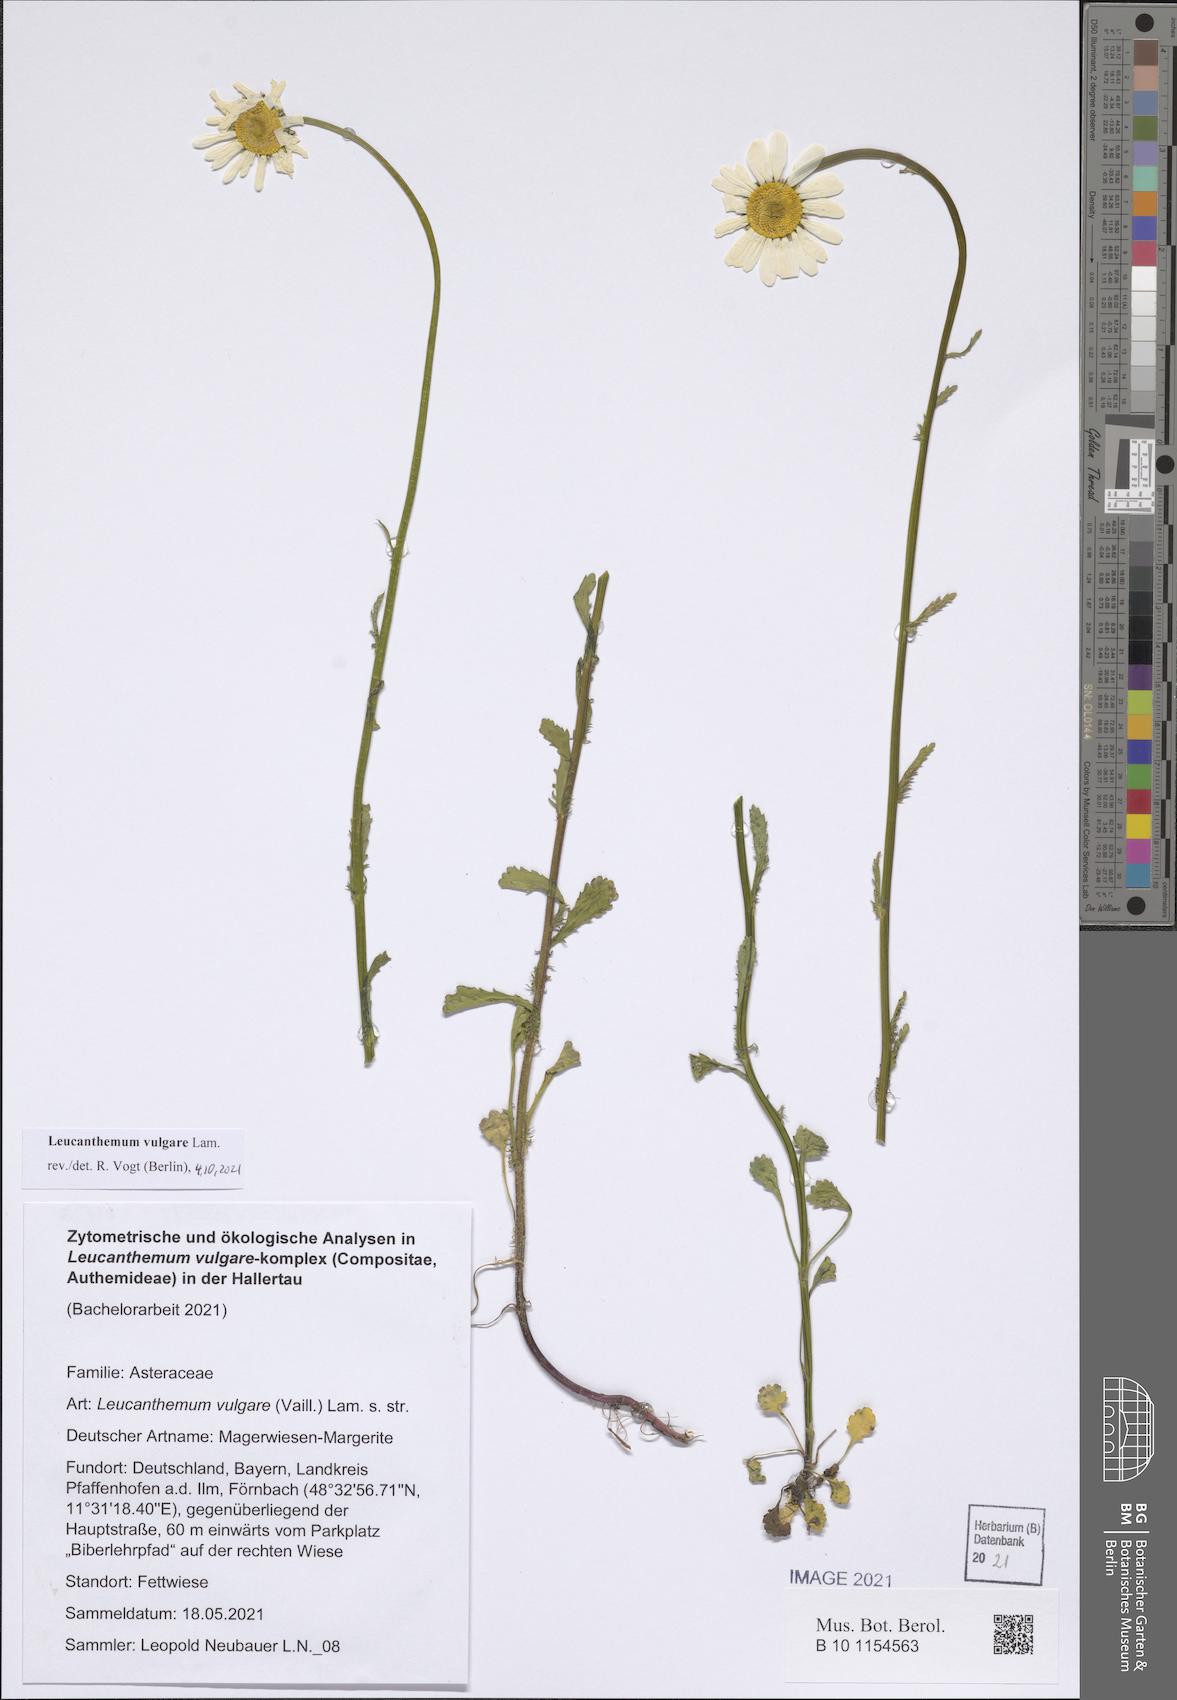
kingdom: Plantae
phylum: Tracheophyta
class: Magnoliopsida
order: Asterales
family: Asteraceae
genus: Leucanthemum
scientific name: Leucanthemum vulgare
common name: Oxeye daisy
